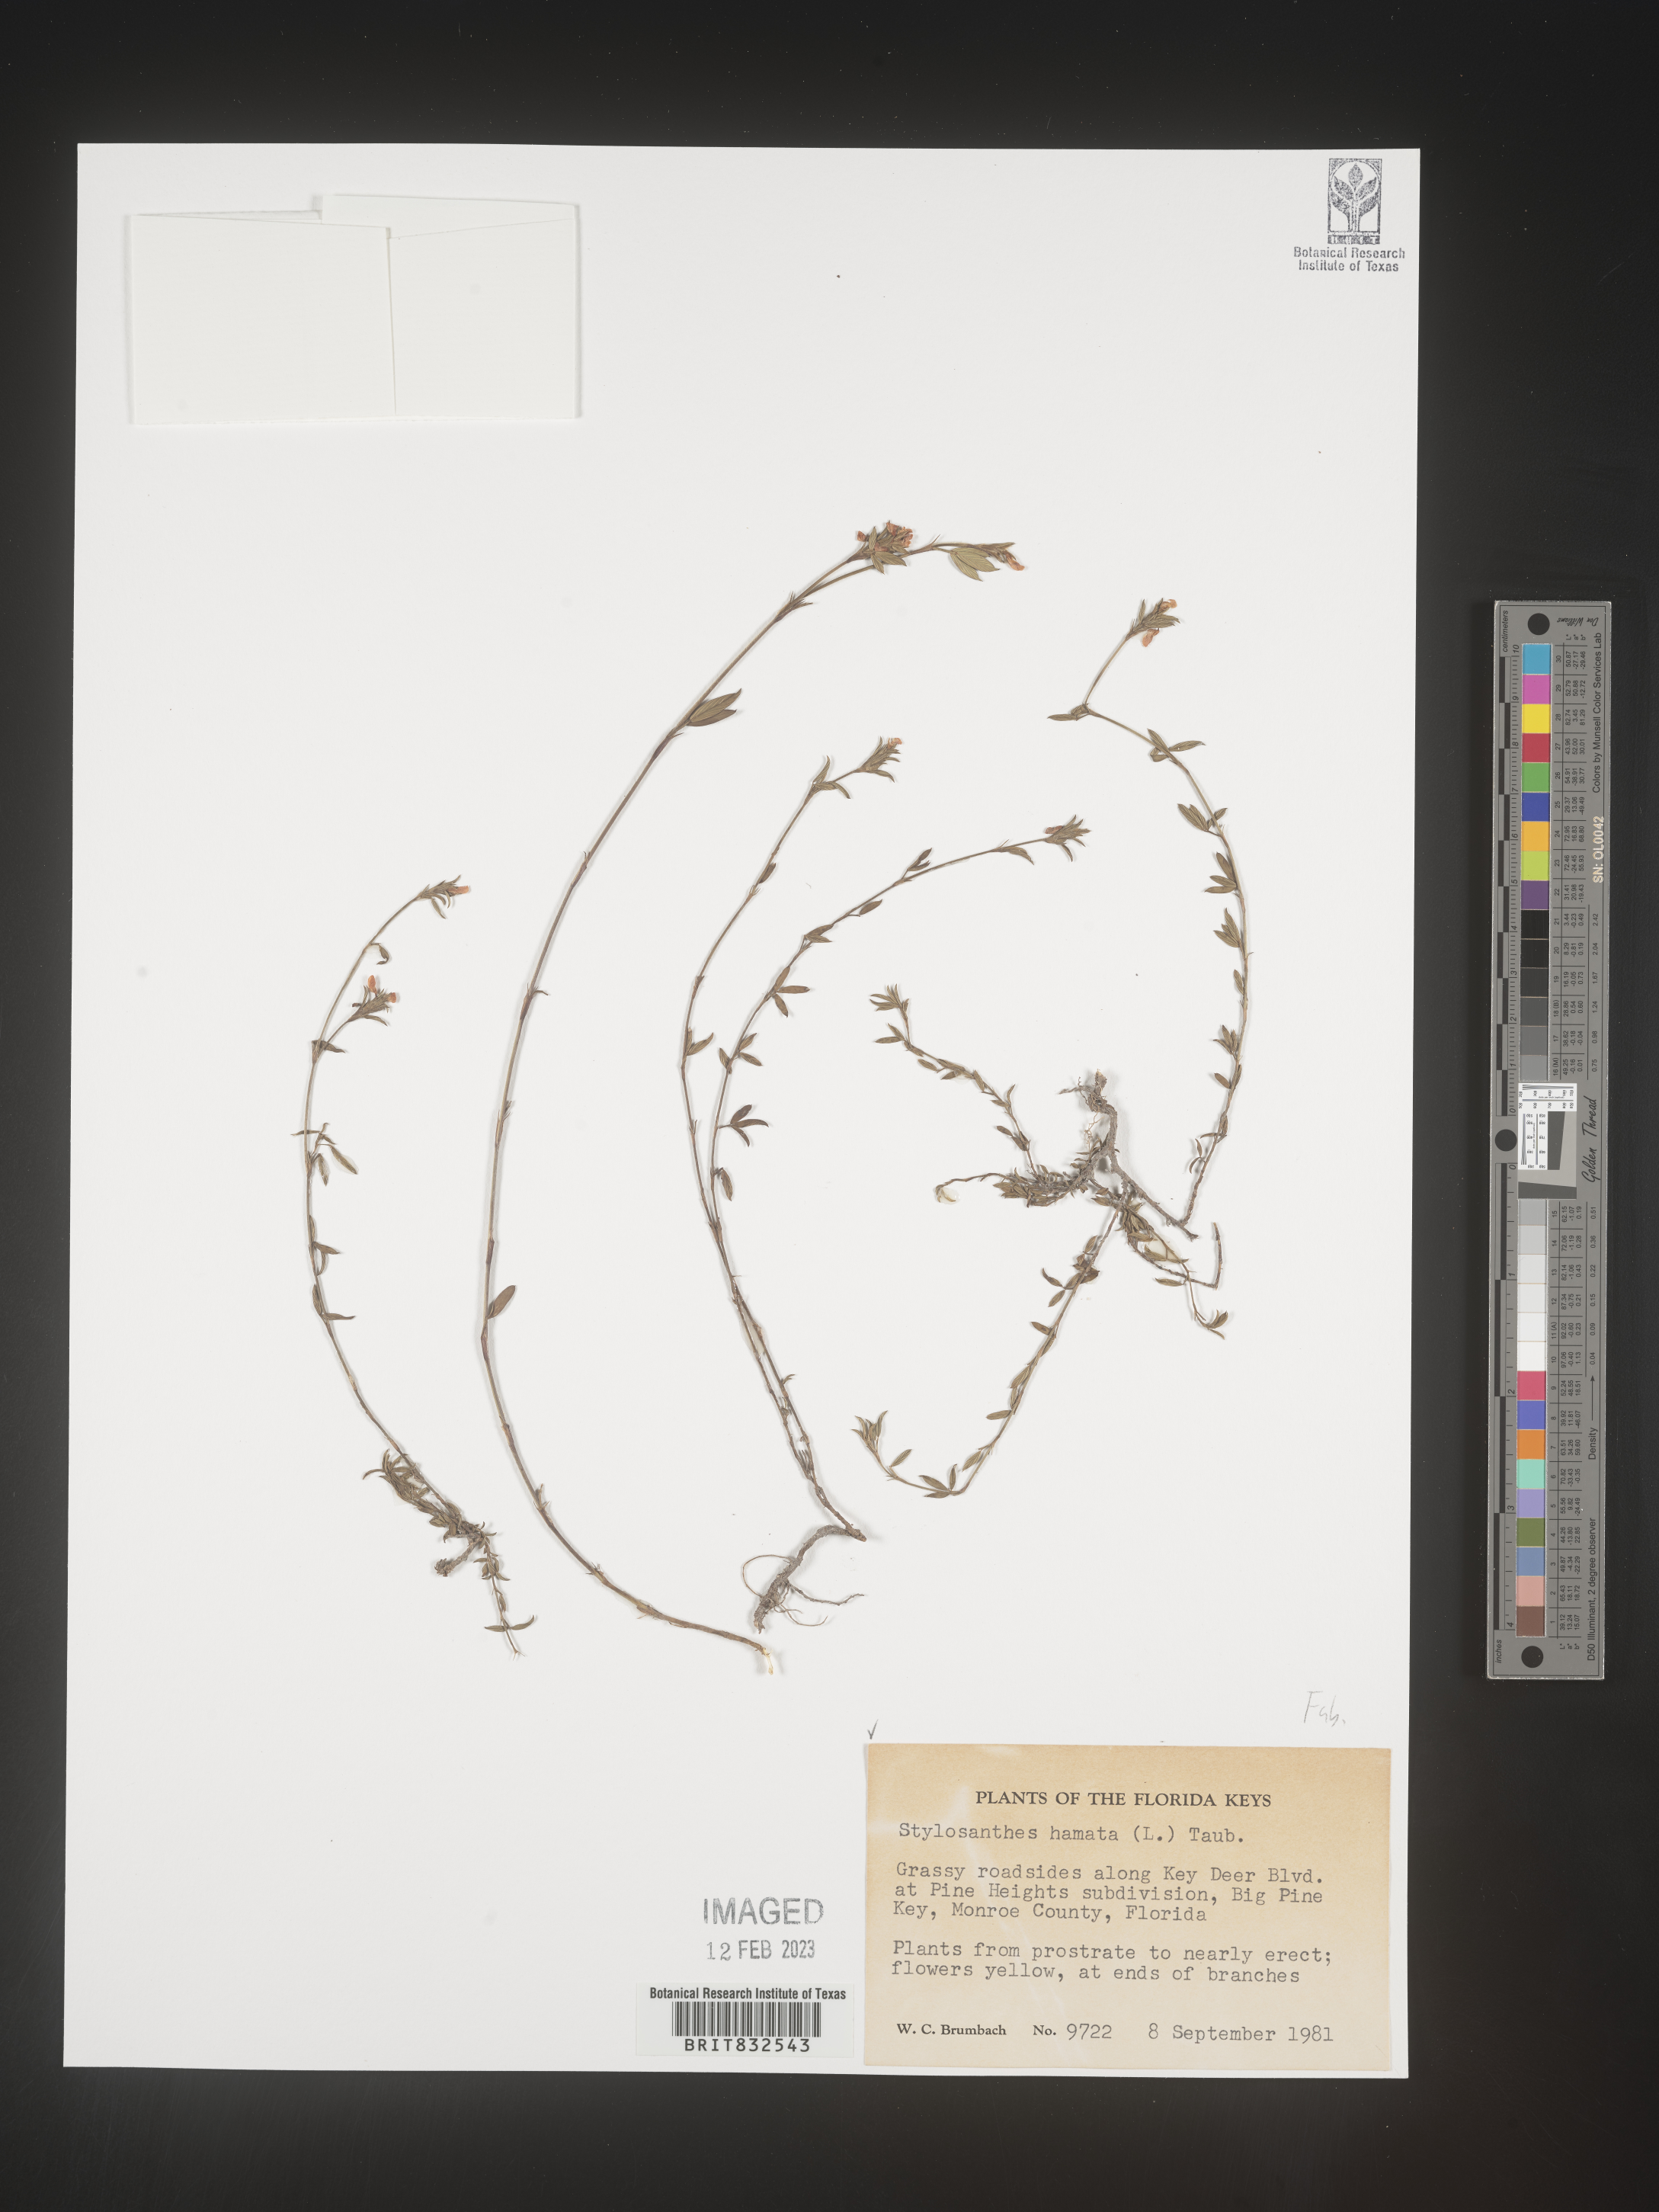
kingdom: Plantae
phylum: Tracheophyta
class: Magnoliopsida
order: Fabales
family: Fabaceae
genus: Stylosanthes
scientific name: Stylosanthes
